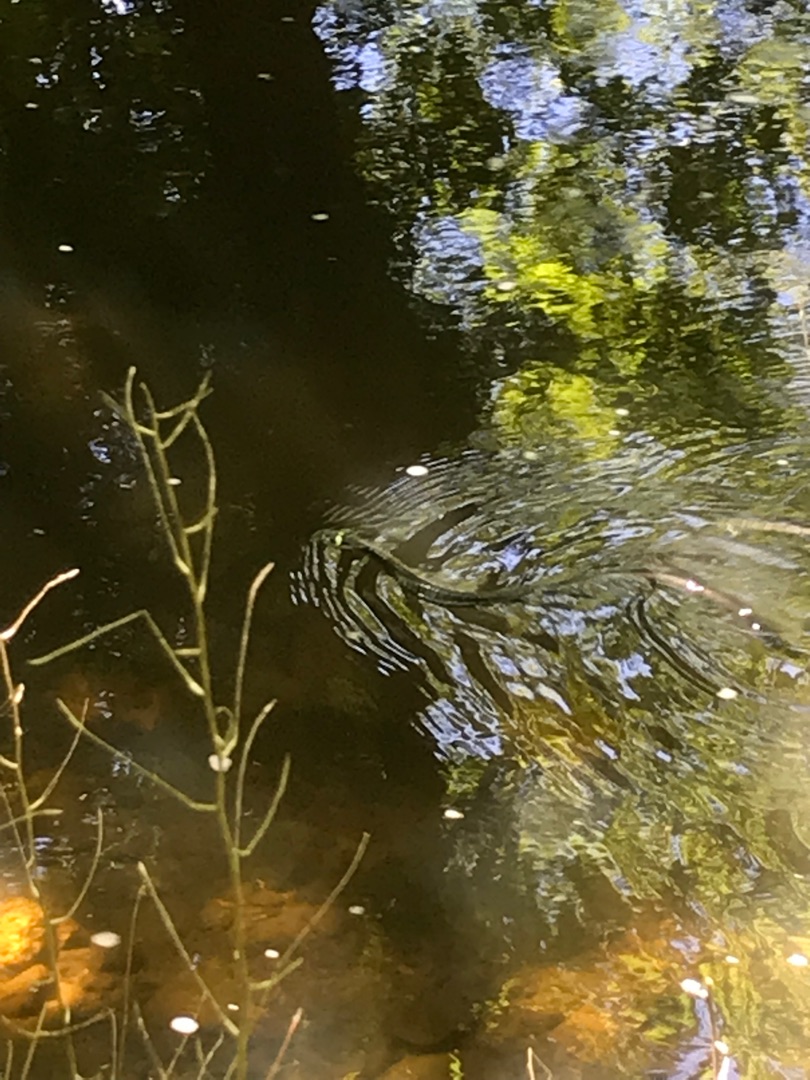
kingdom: Animalia
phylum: Chordata
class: Squamata
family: Colubridae
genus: Natrix
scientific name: Natrix natrix
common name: Snog
